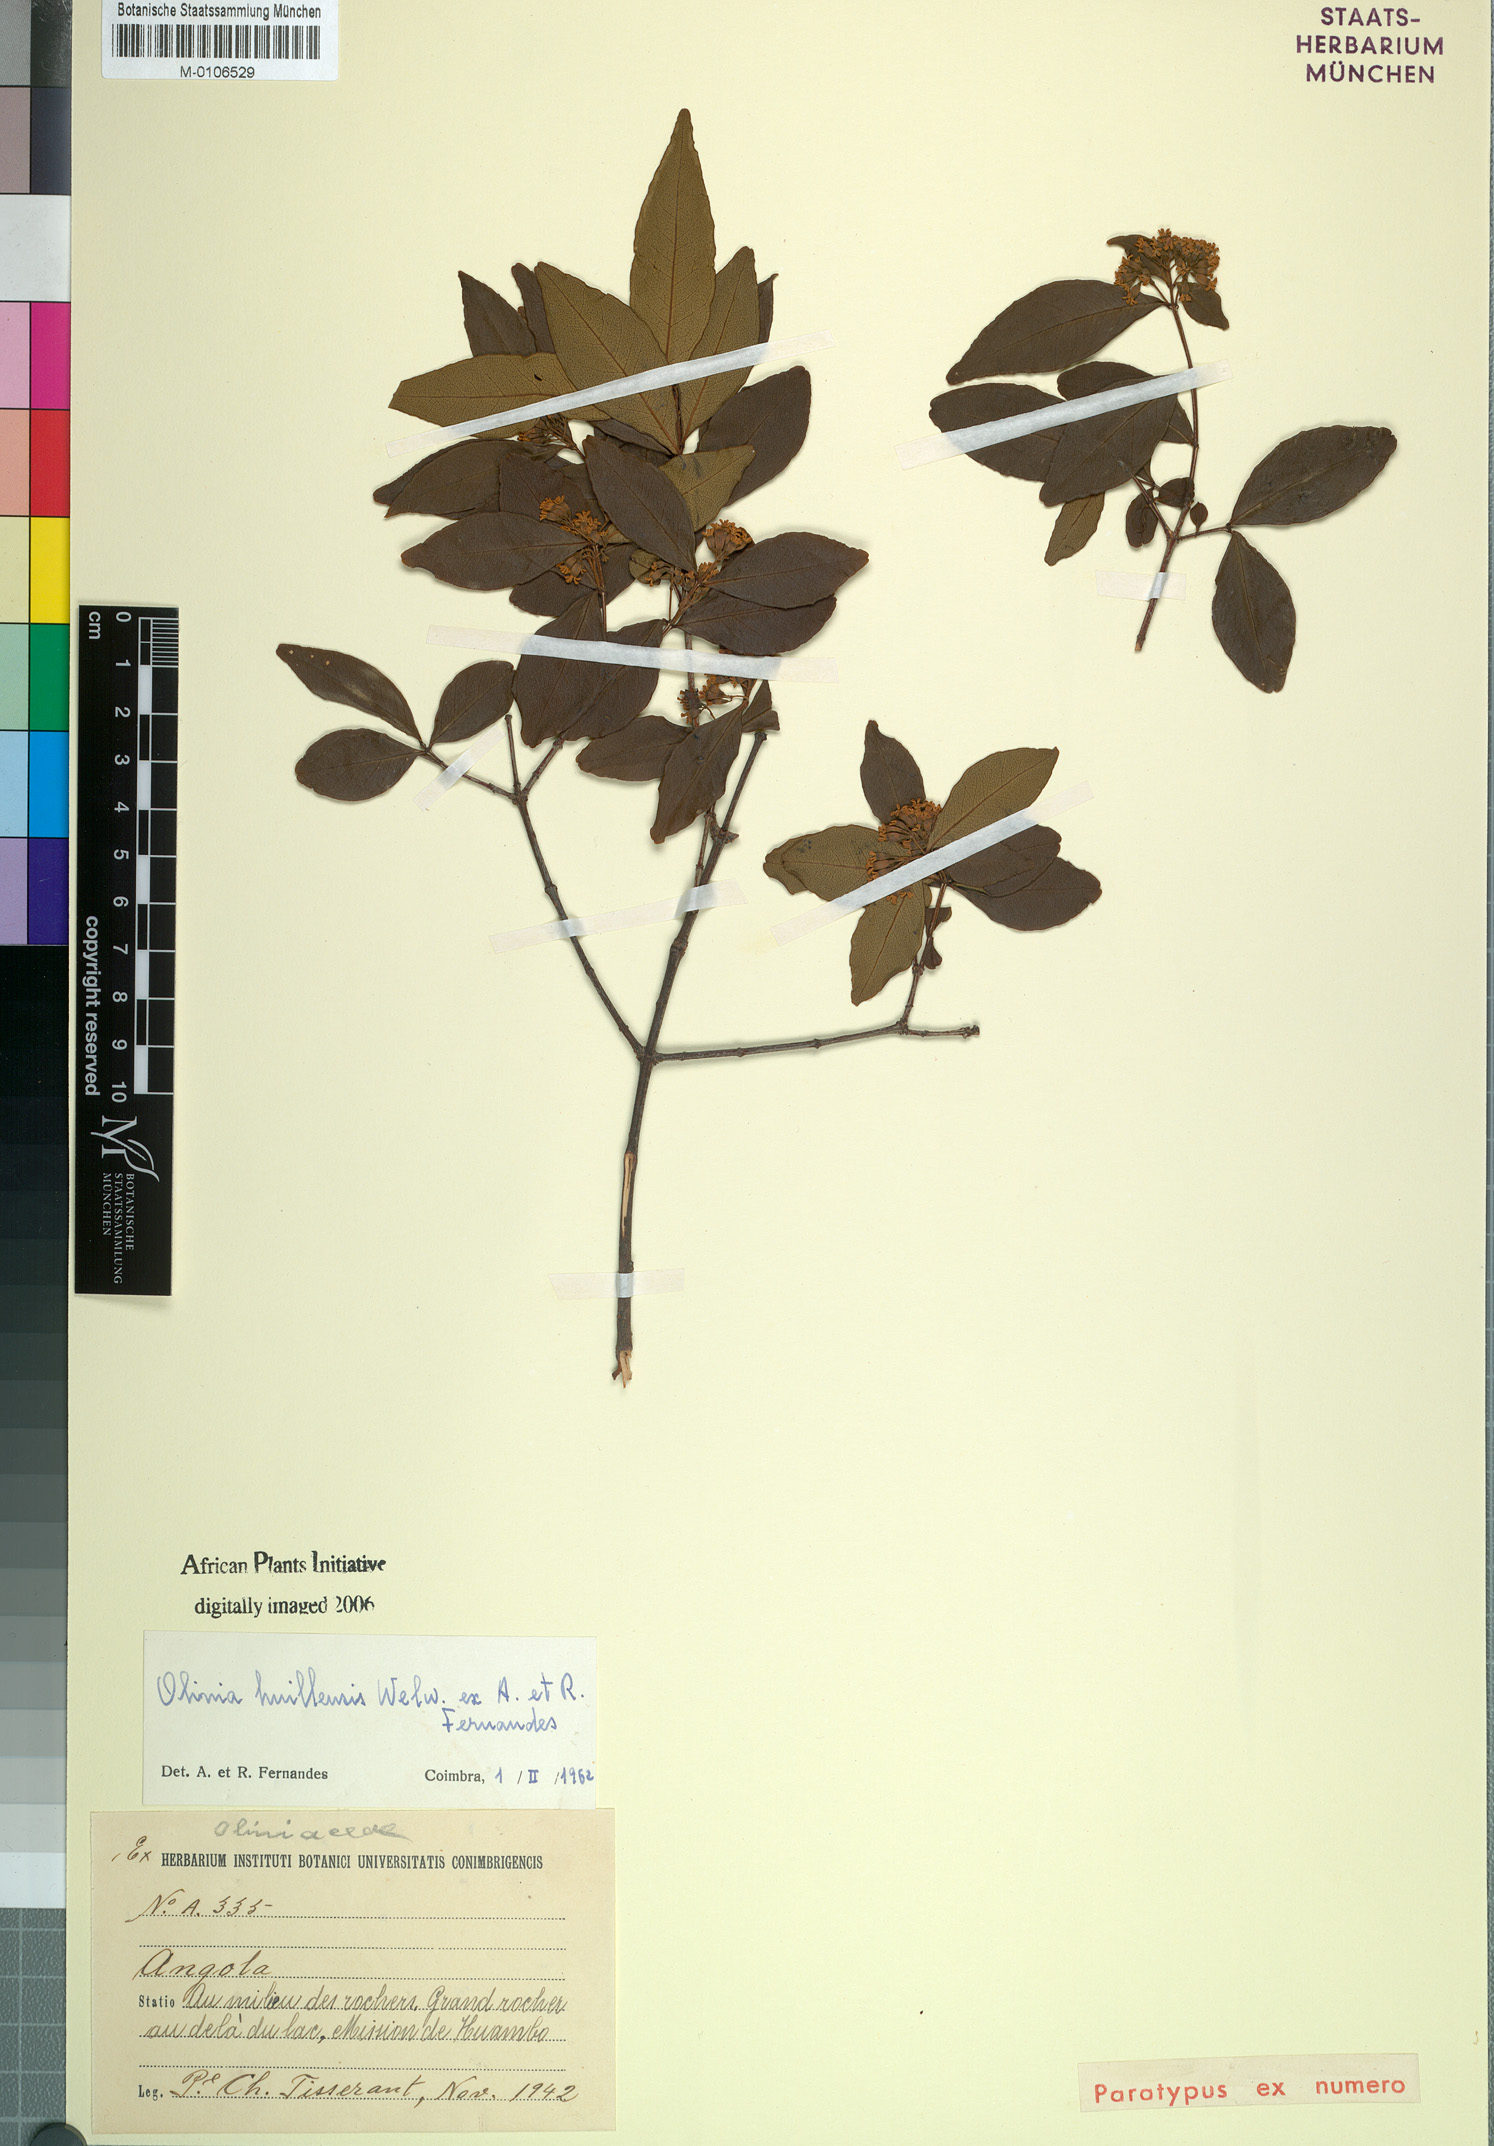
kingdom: Plantae
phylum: Tracheophyta
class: Magnoliopsida
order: Myrtales
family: Penaeaceae
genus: Olinia
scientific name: Olinia rochetiana
